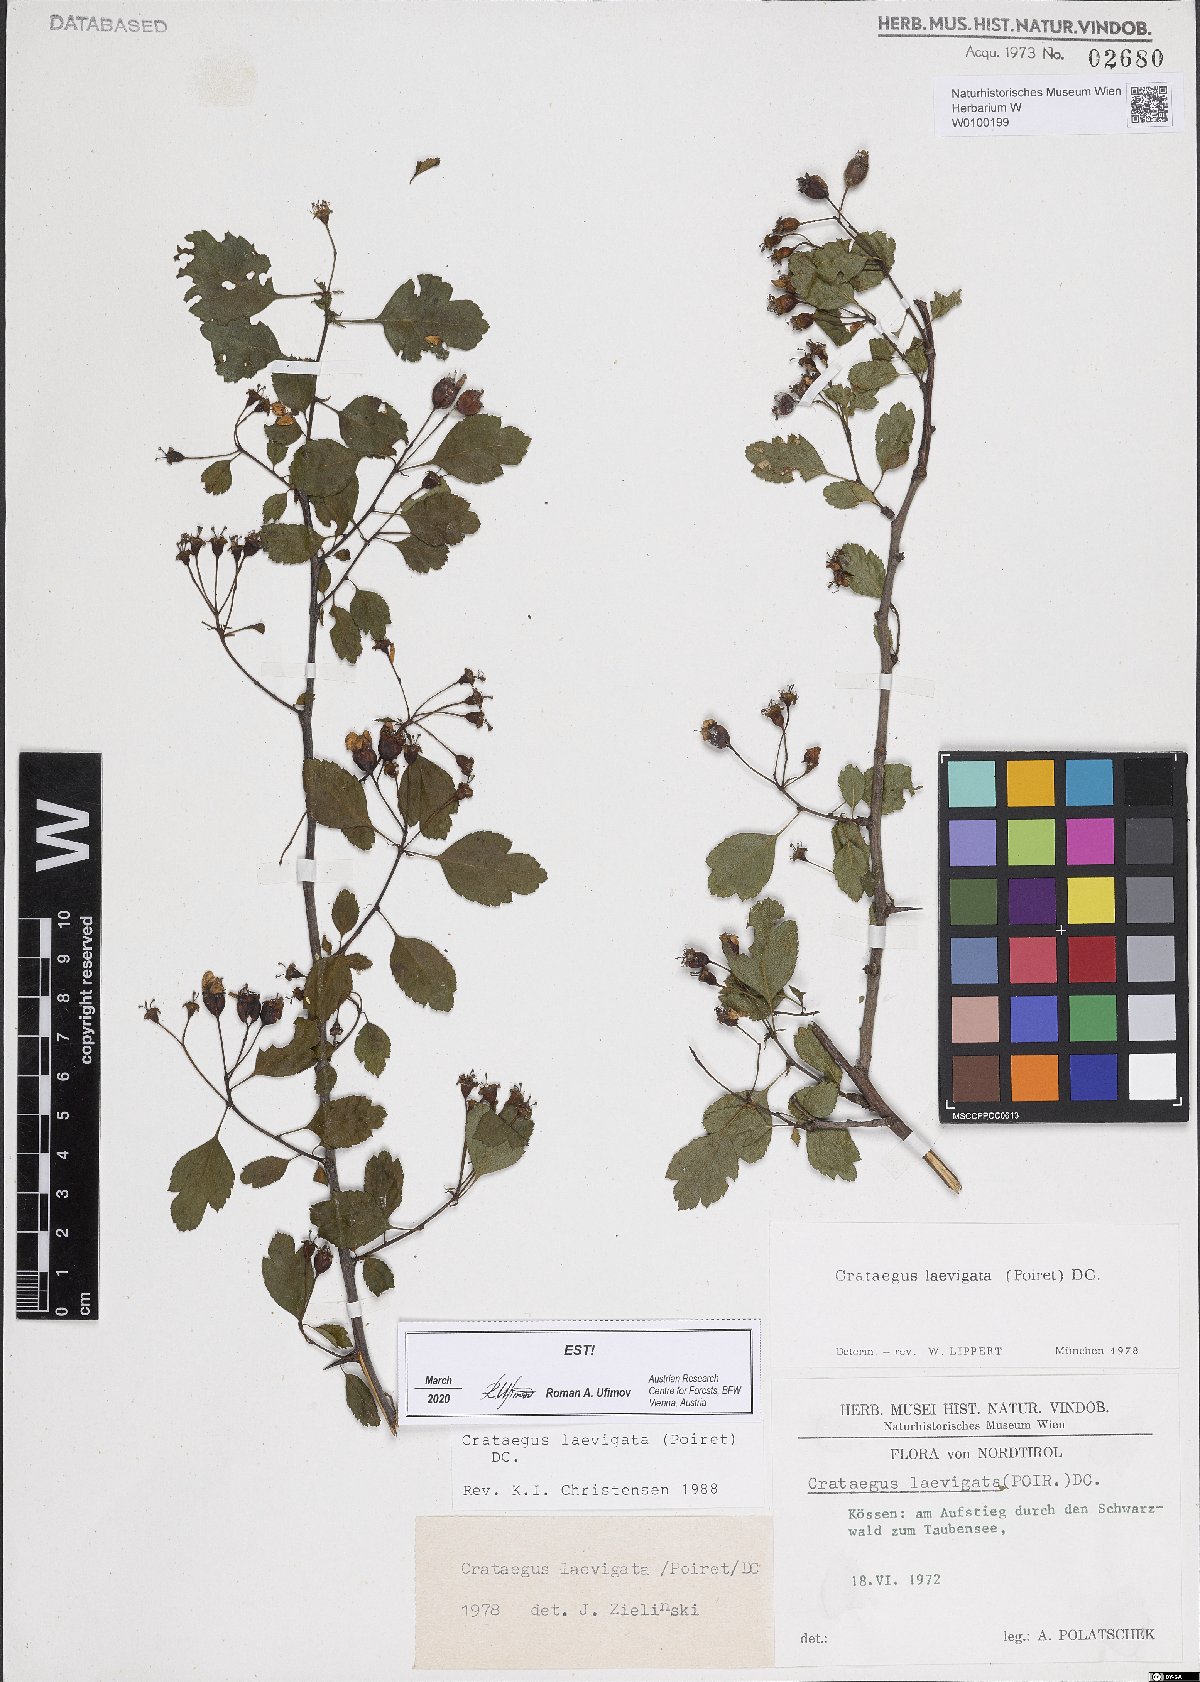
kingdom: Plantae
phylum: Tracheophyta
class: Magnoliopsida
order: Rosales
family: Rosaceae
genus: Crataegus
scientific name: Crataegus laevigata
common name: Midland hawthorn
